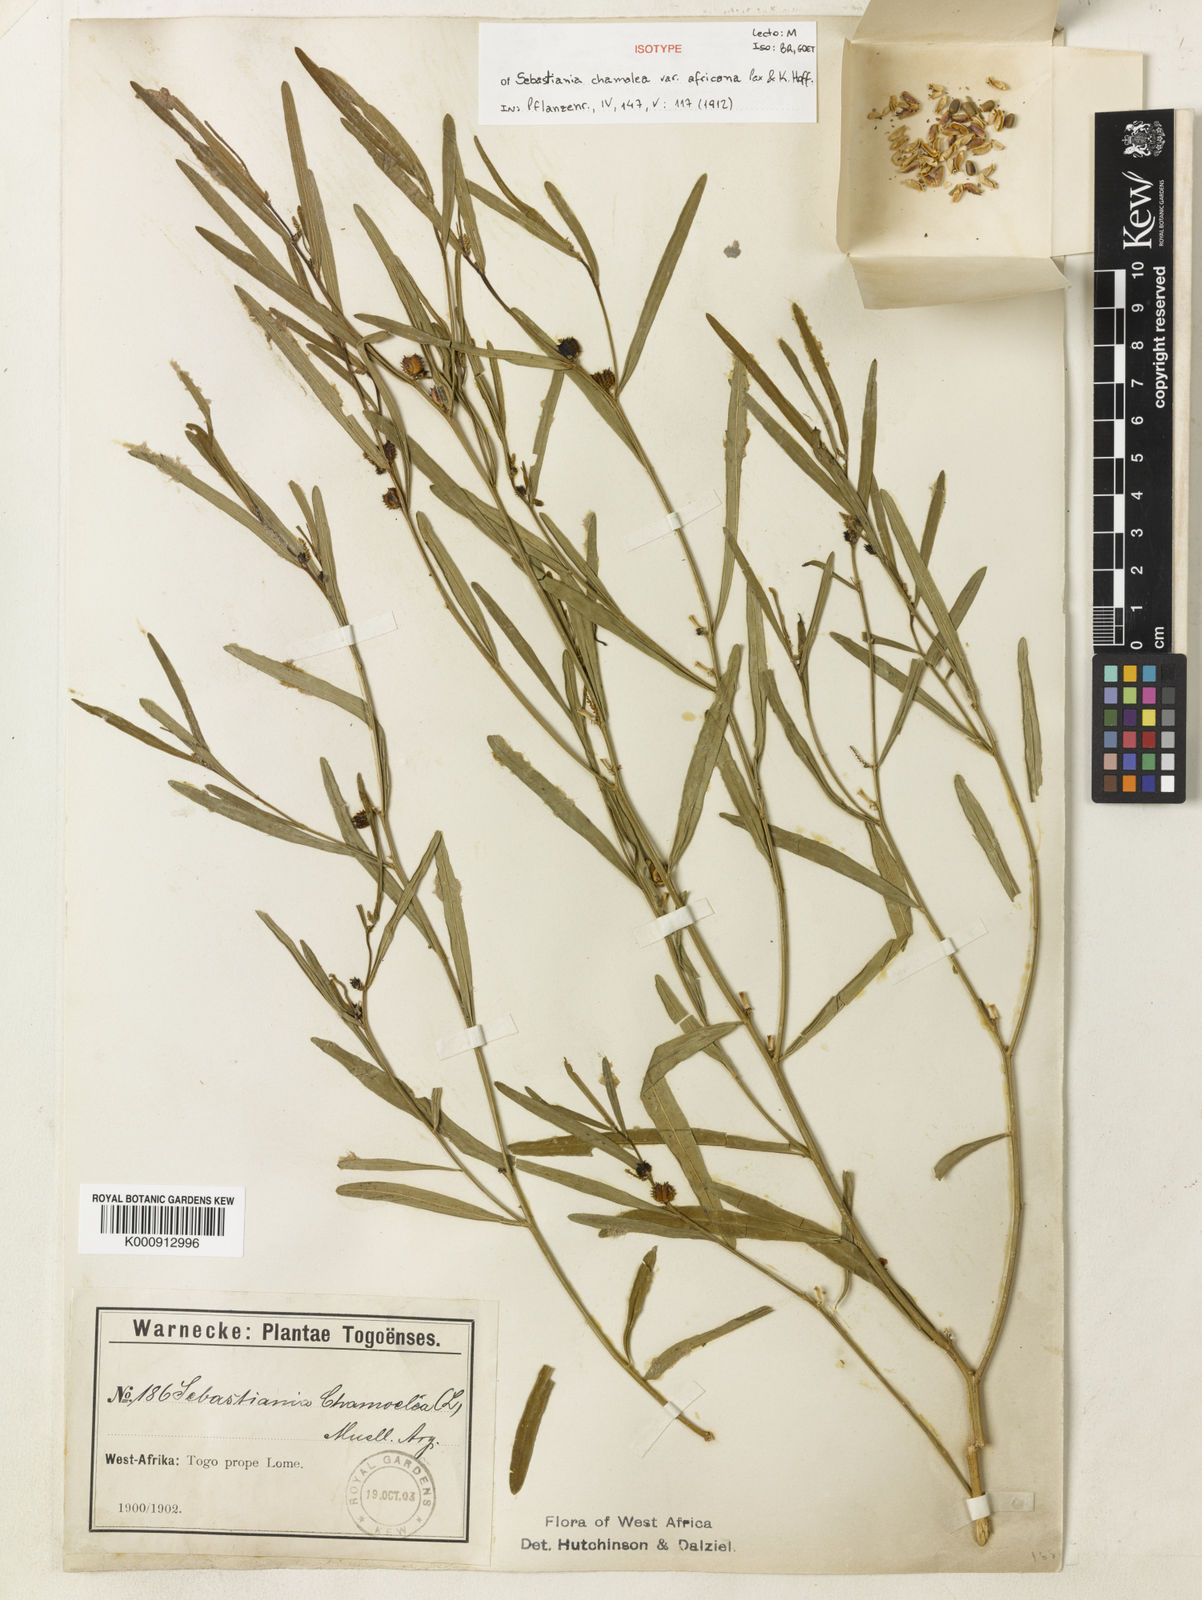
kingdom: Plantae
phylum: Tracheophyta
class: Magnoliopsida
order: Malpighiales
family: Euphorbiaceae
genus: Microstachys
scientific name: Microstachys
